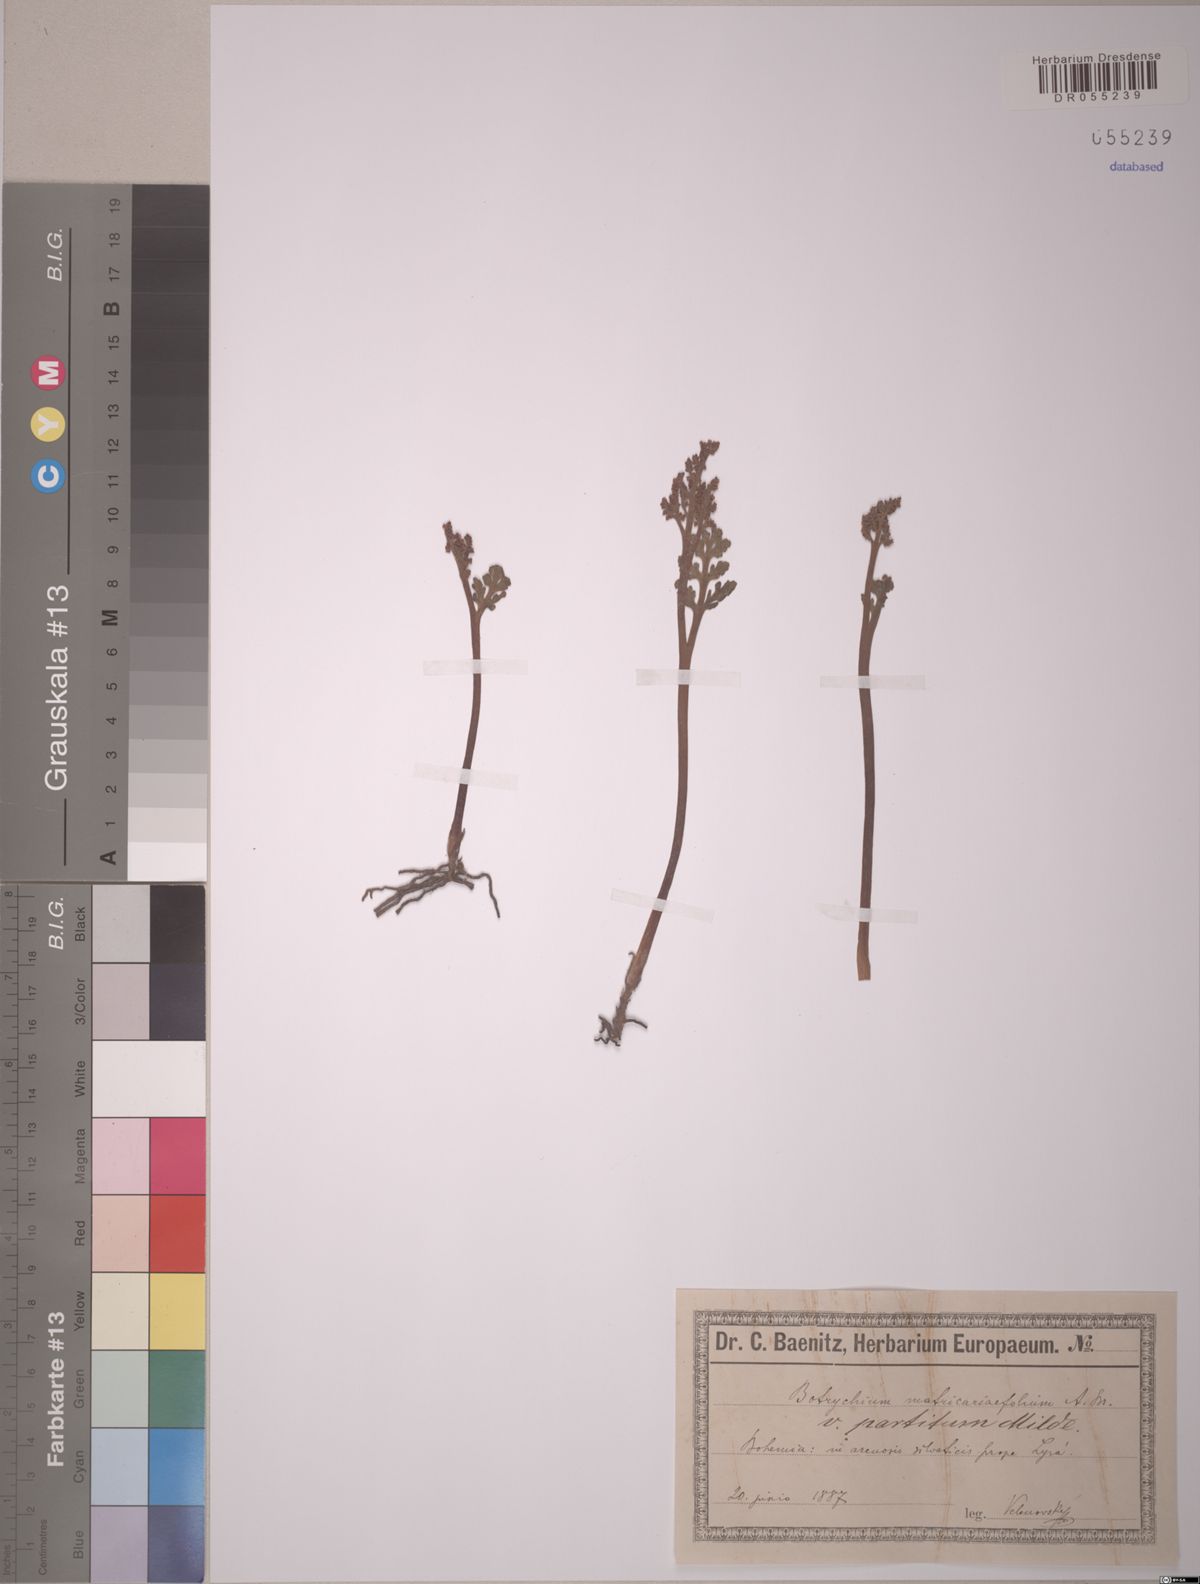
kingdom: Plantae
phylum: Tracheophyta
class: Polypodiopsida
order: Ophioglossales
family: Ophioglossaceae
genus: Botrychium
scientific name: Botrychium matricariifolium
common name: Branched moonwort
